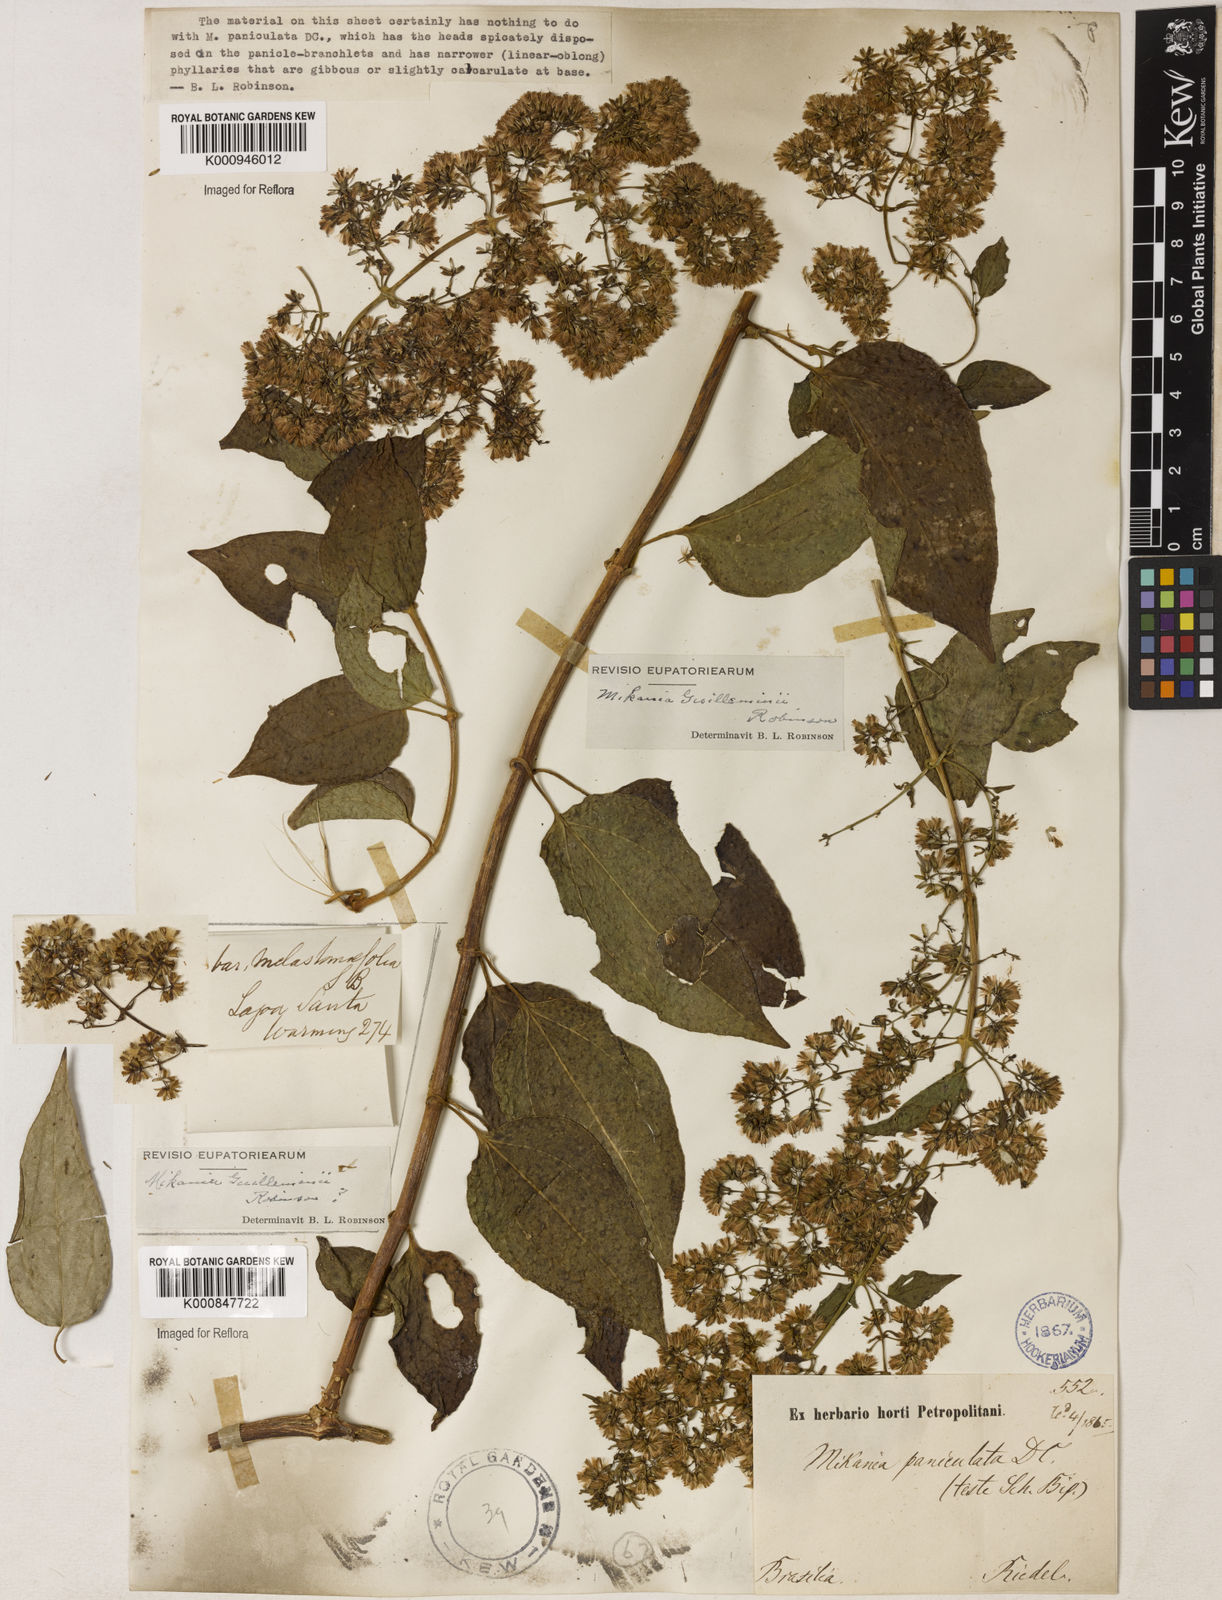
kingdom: Plantae
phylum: Tracheophyta
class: Magnoliopsida
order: Asterales
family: Asteraceae
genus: Mikania
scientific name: Mikania guilleminii
